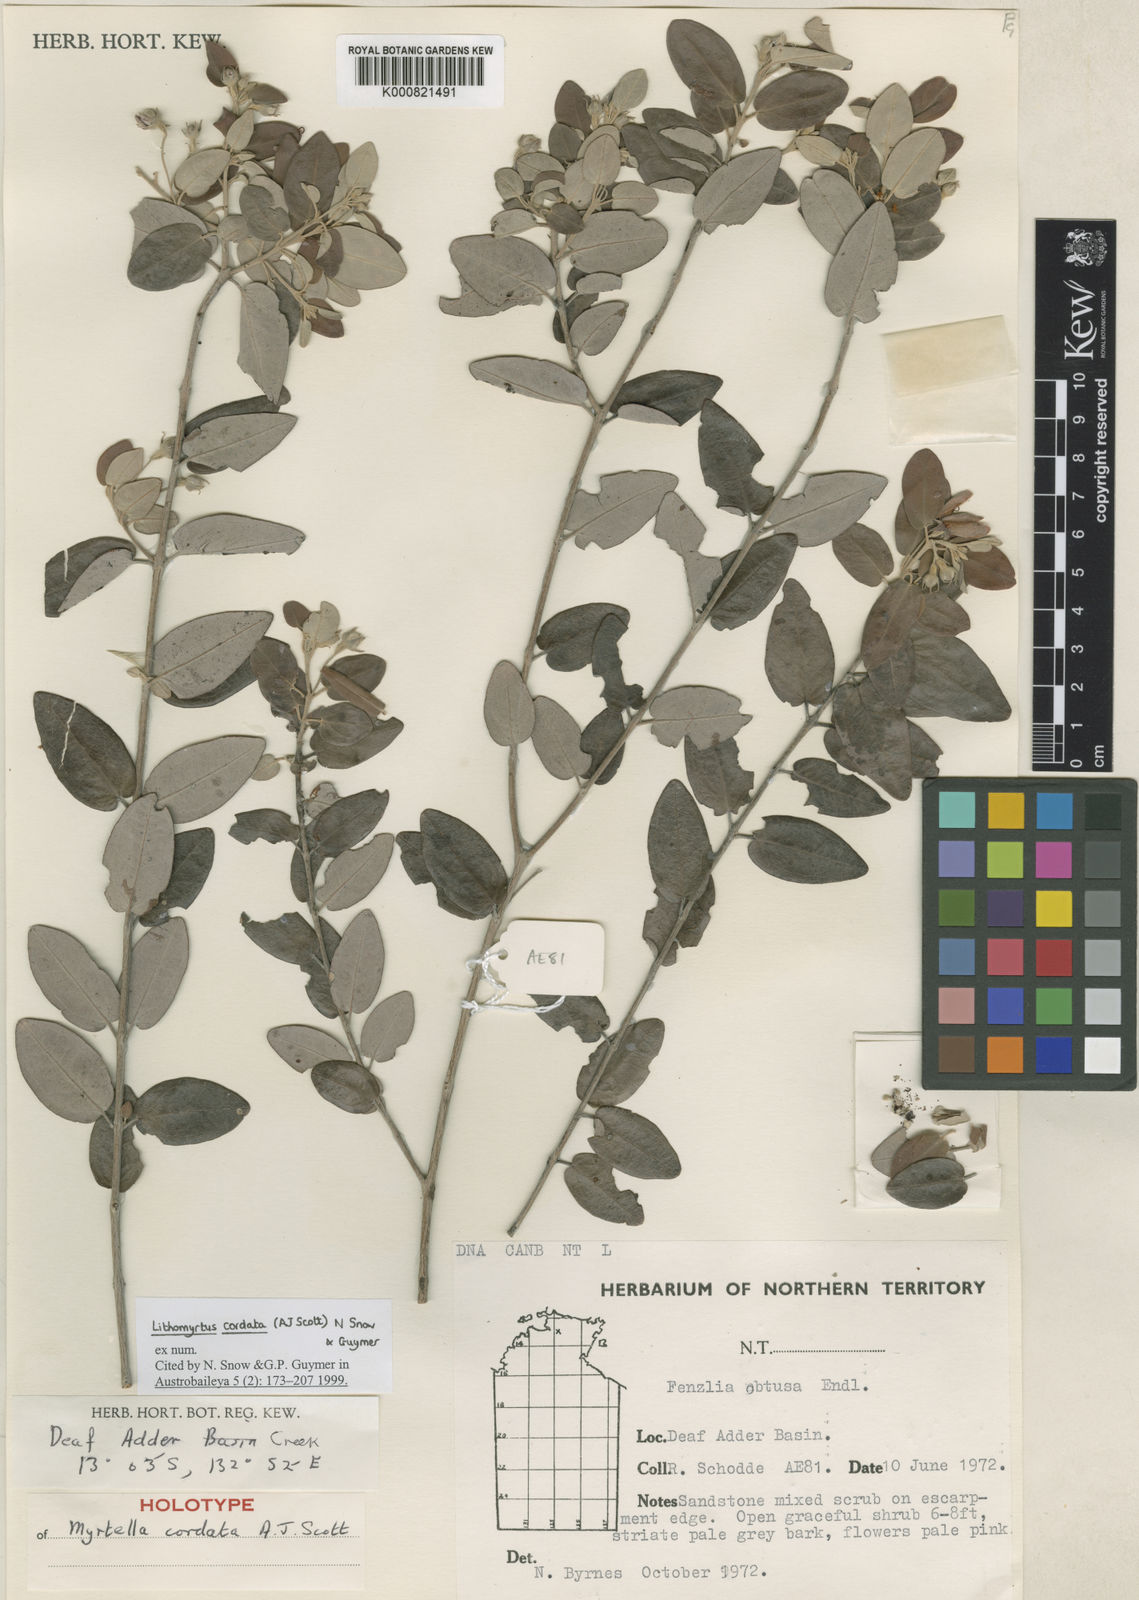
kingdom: Plantae
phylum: Tracheophyta
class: Magnoliopsida
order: Myrtales
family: Myrtaceae
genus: Lithomyrtus
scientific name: Lithomyrtus cordata
